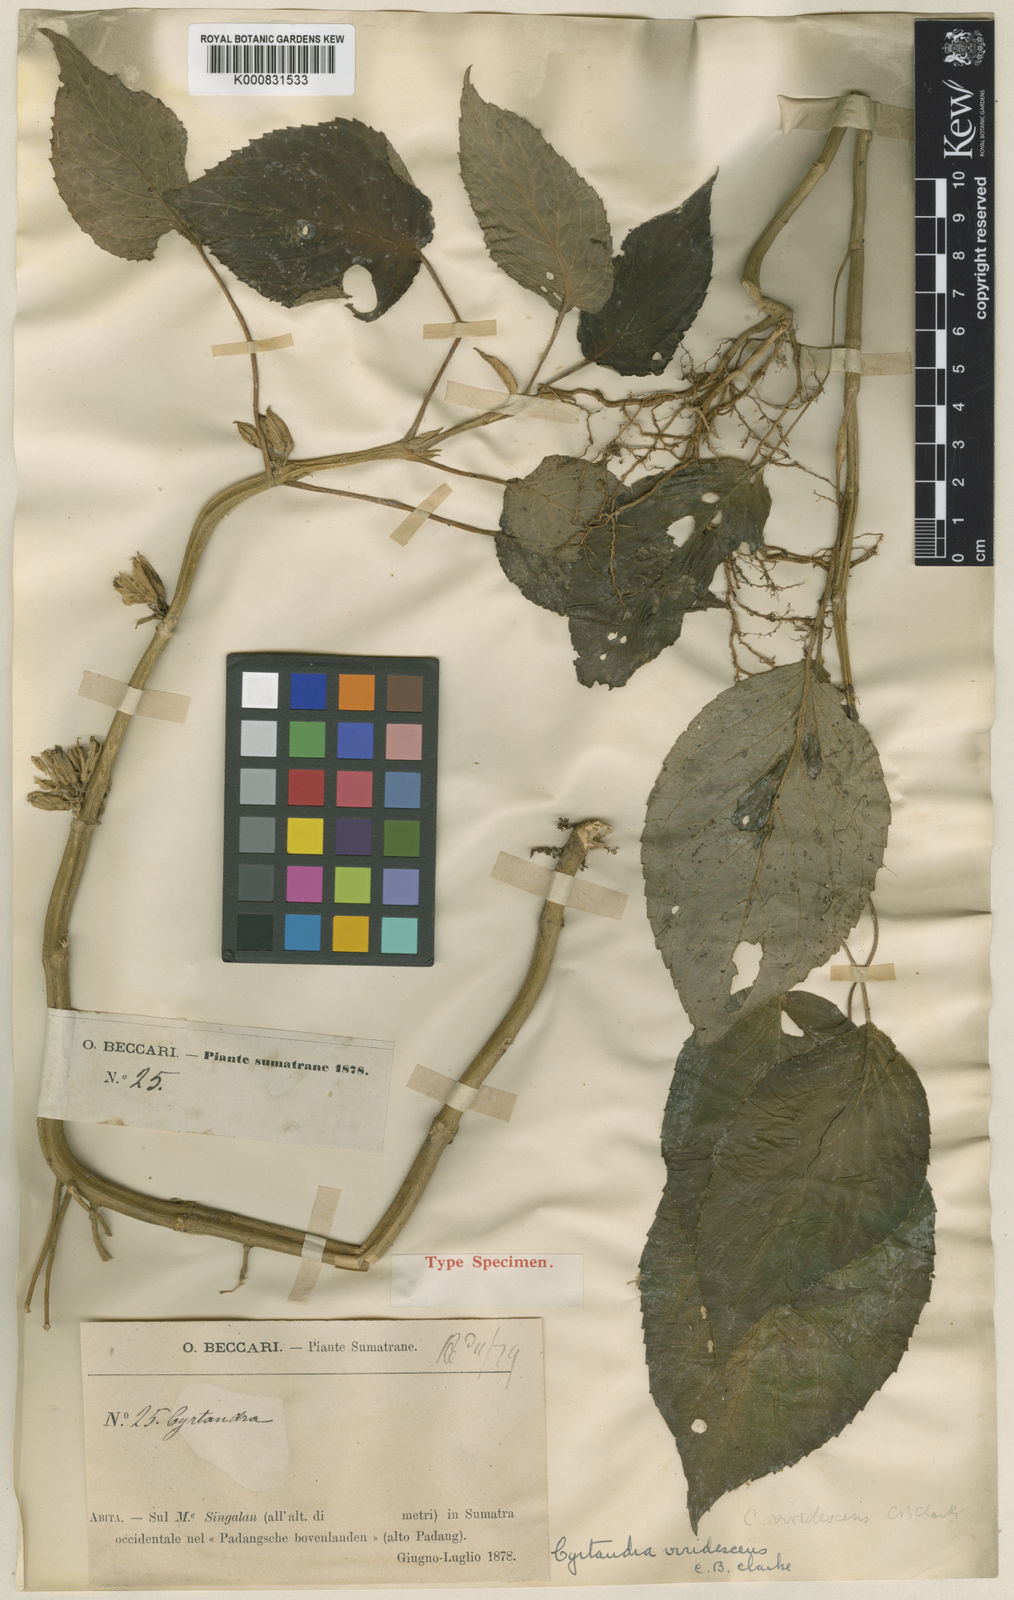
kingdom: Plantae
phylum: Tracheophyta
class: Magnoliopsida
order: Lamiales
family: Gesneriaceae
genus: Cyrtandra
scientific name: Cyrtandra viridescens
